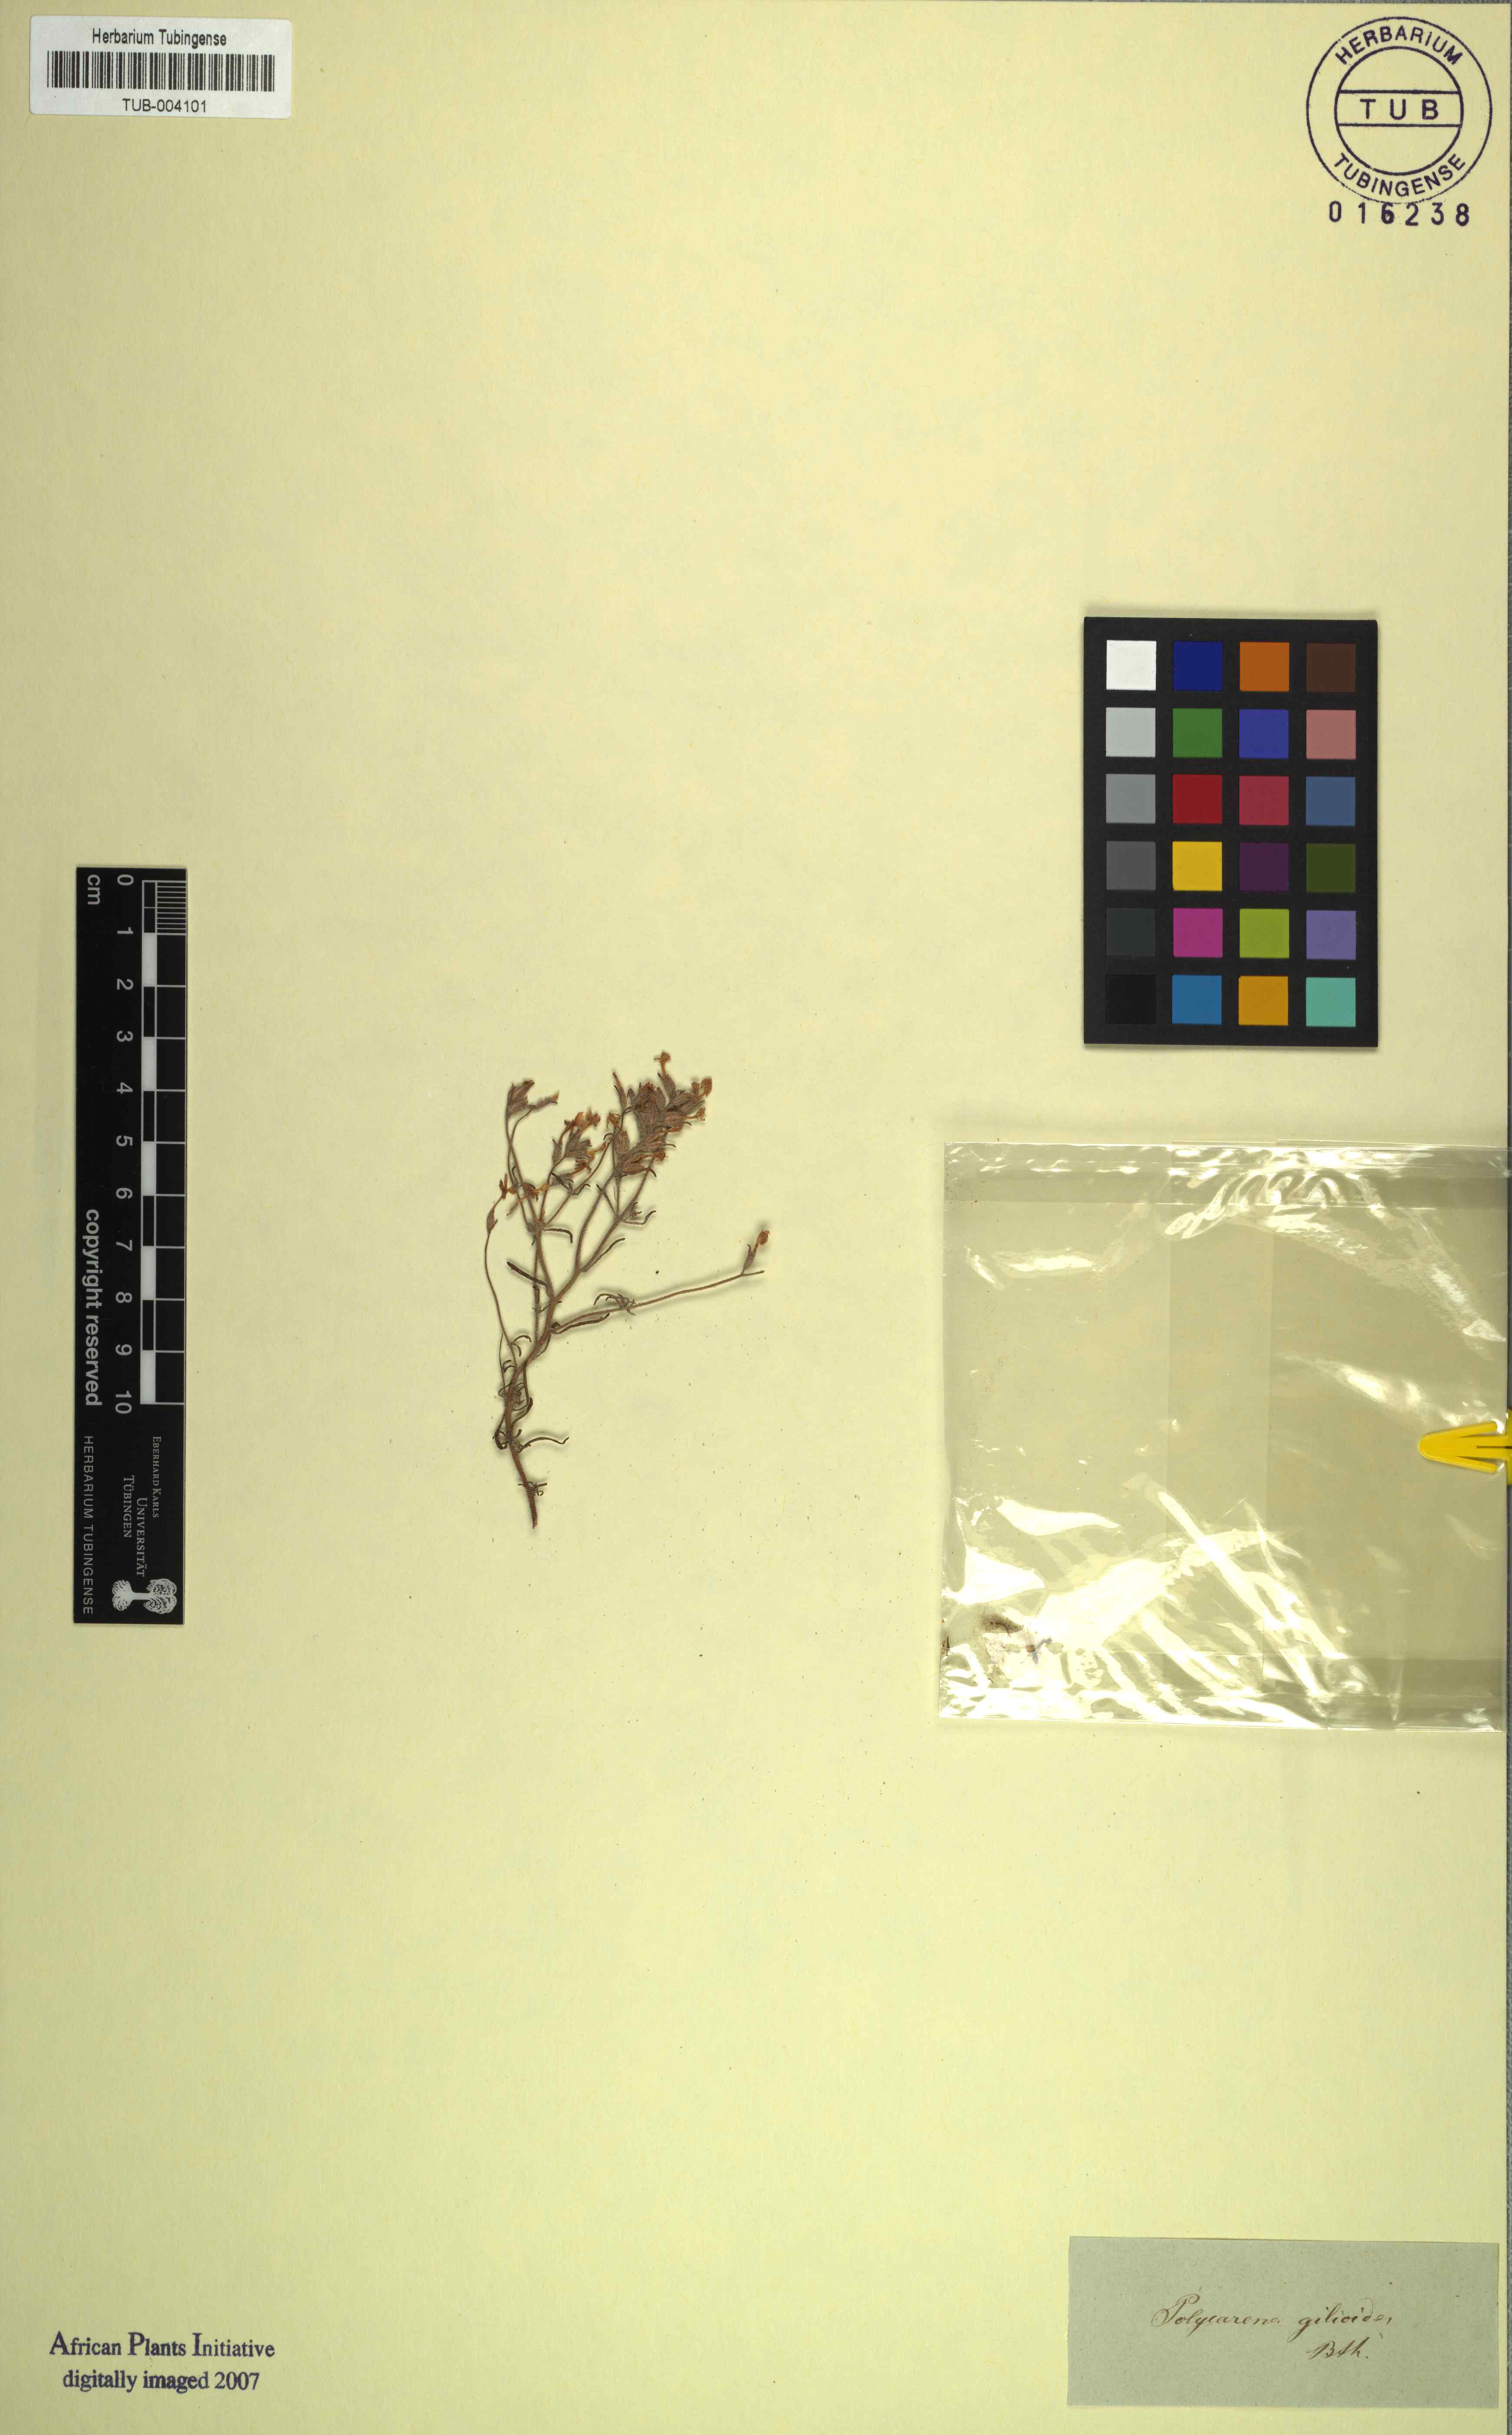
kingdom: Plantae
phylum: Tracheophyta
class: Magnoliopsida
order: Lamiales
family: Scrophulariaceae
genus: Polycarena
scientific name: Polycarena gilioides
